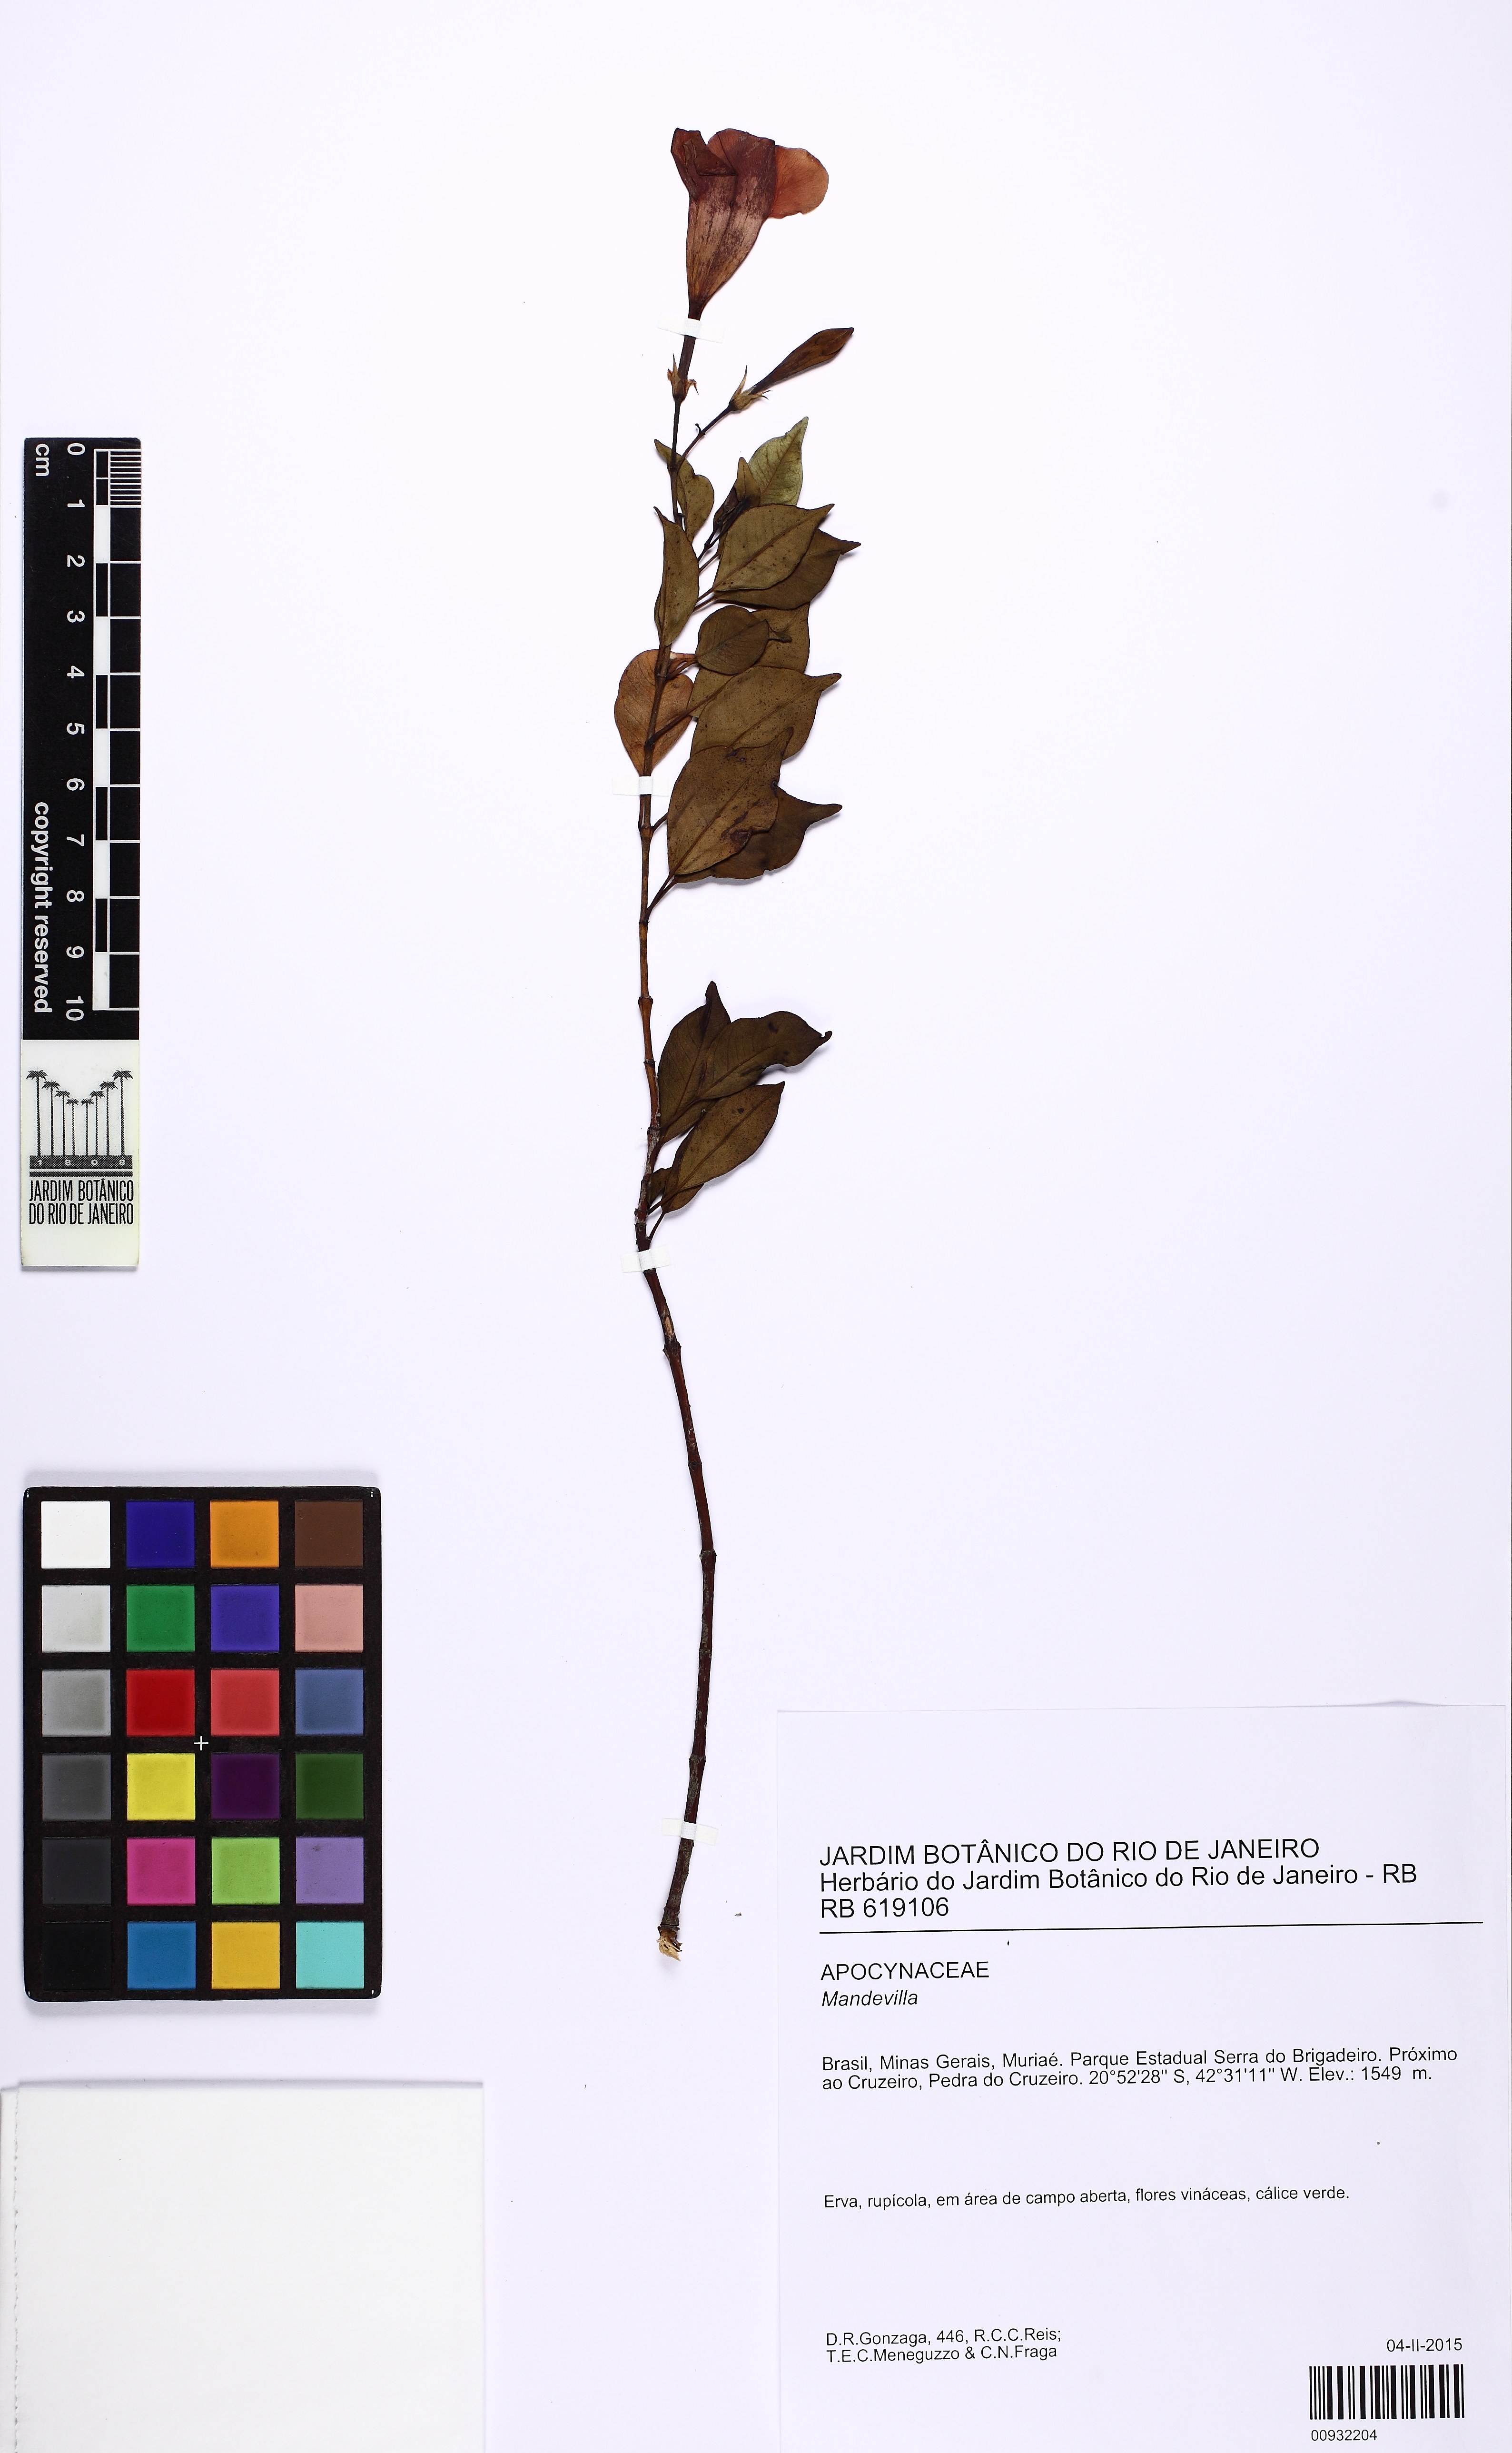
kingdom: Plantae
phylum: Tracheophyta
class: Magnoliopsida
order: Gentianales
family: Apocynaceae
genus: Mandevilla
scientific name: Mandevilla
